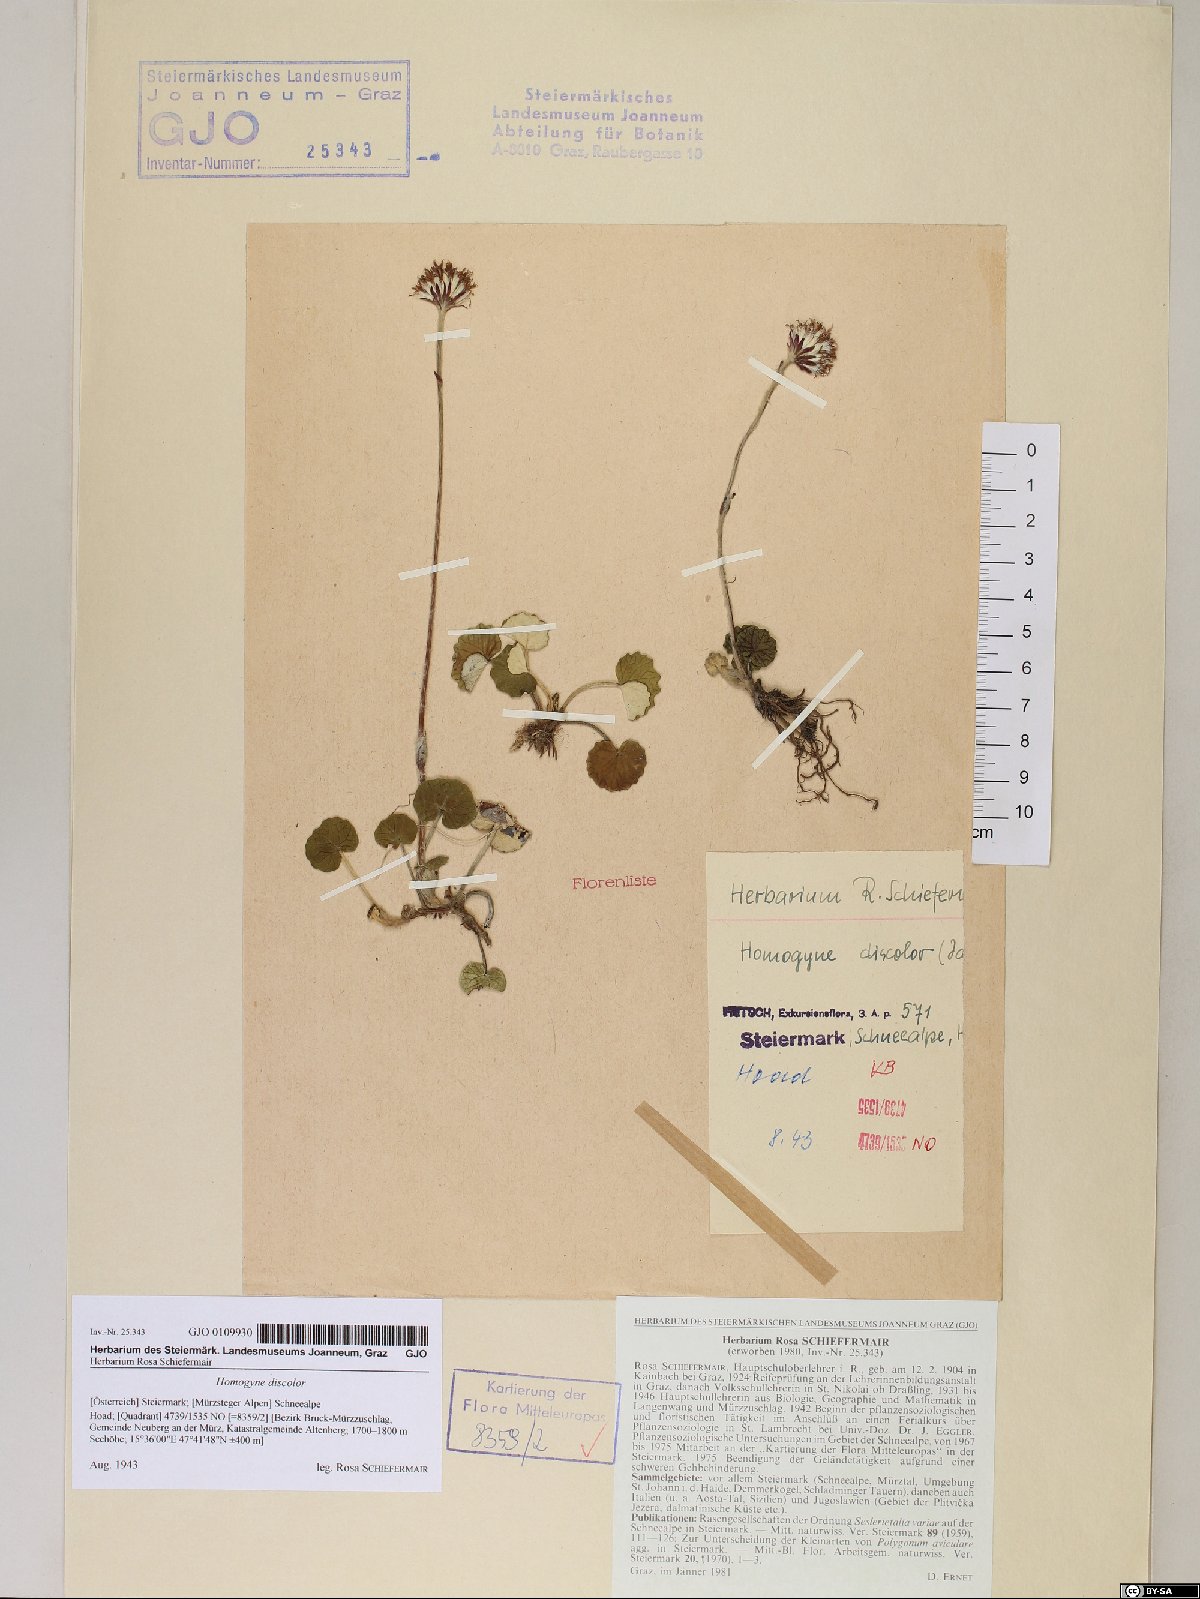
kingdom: Plantae
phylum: Tracheophyta
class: Magnoliopsida
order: Asterales
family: Asteraceae
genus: Homogyne
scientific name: Homogyne discolor
